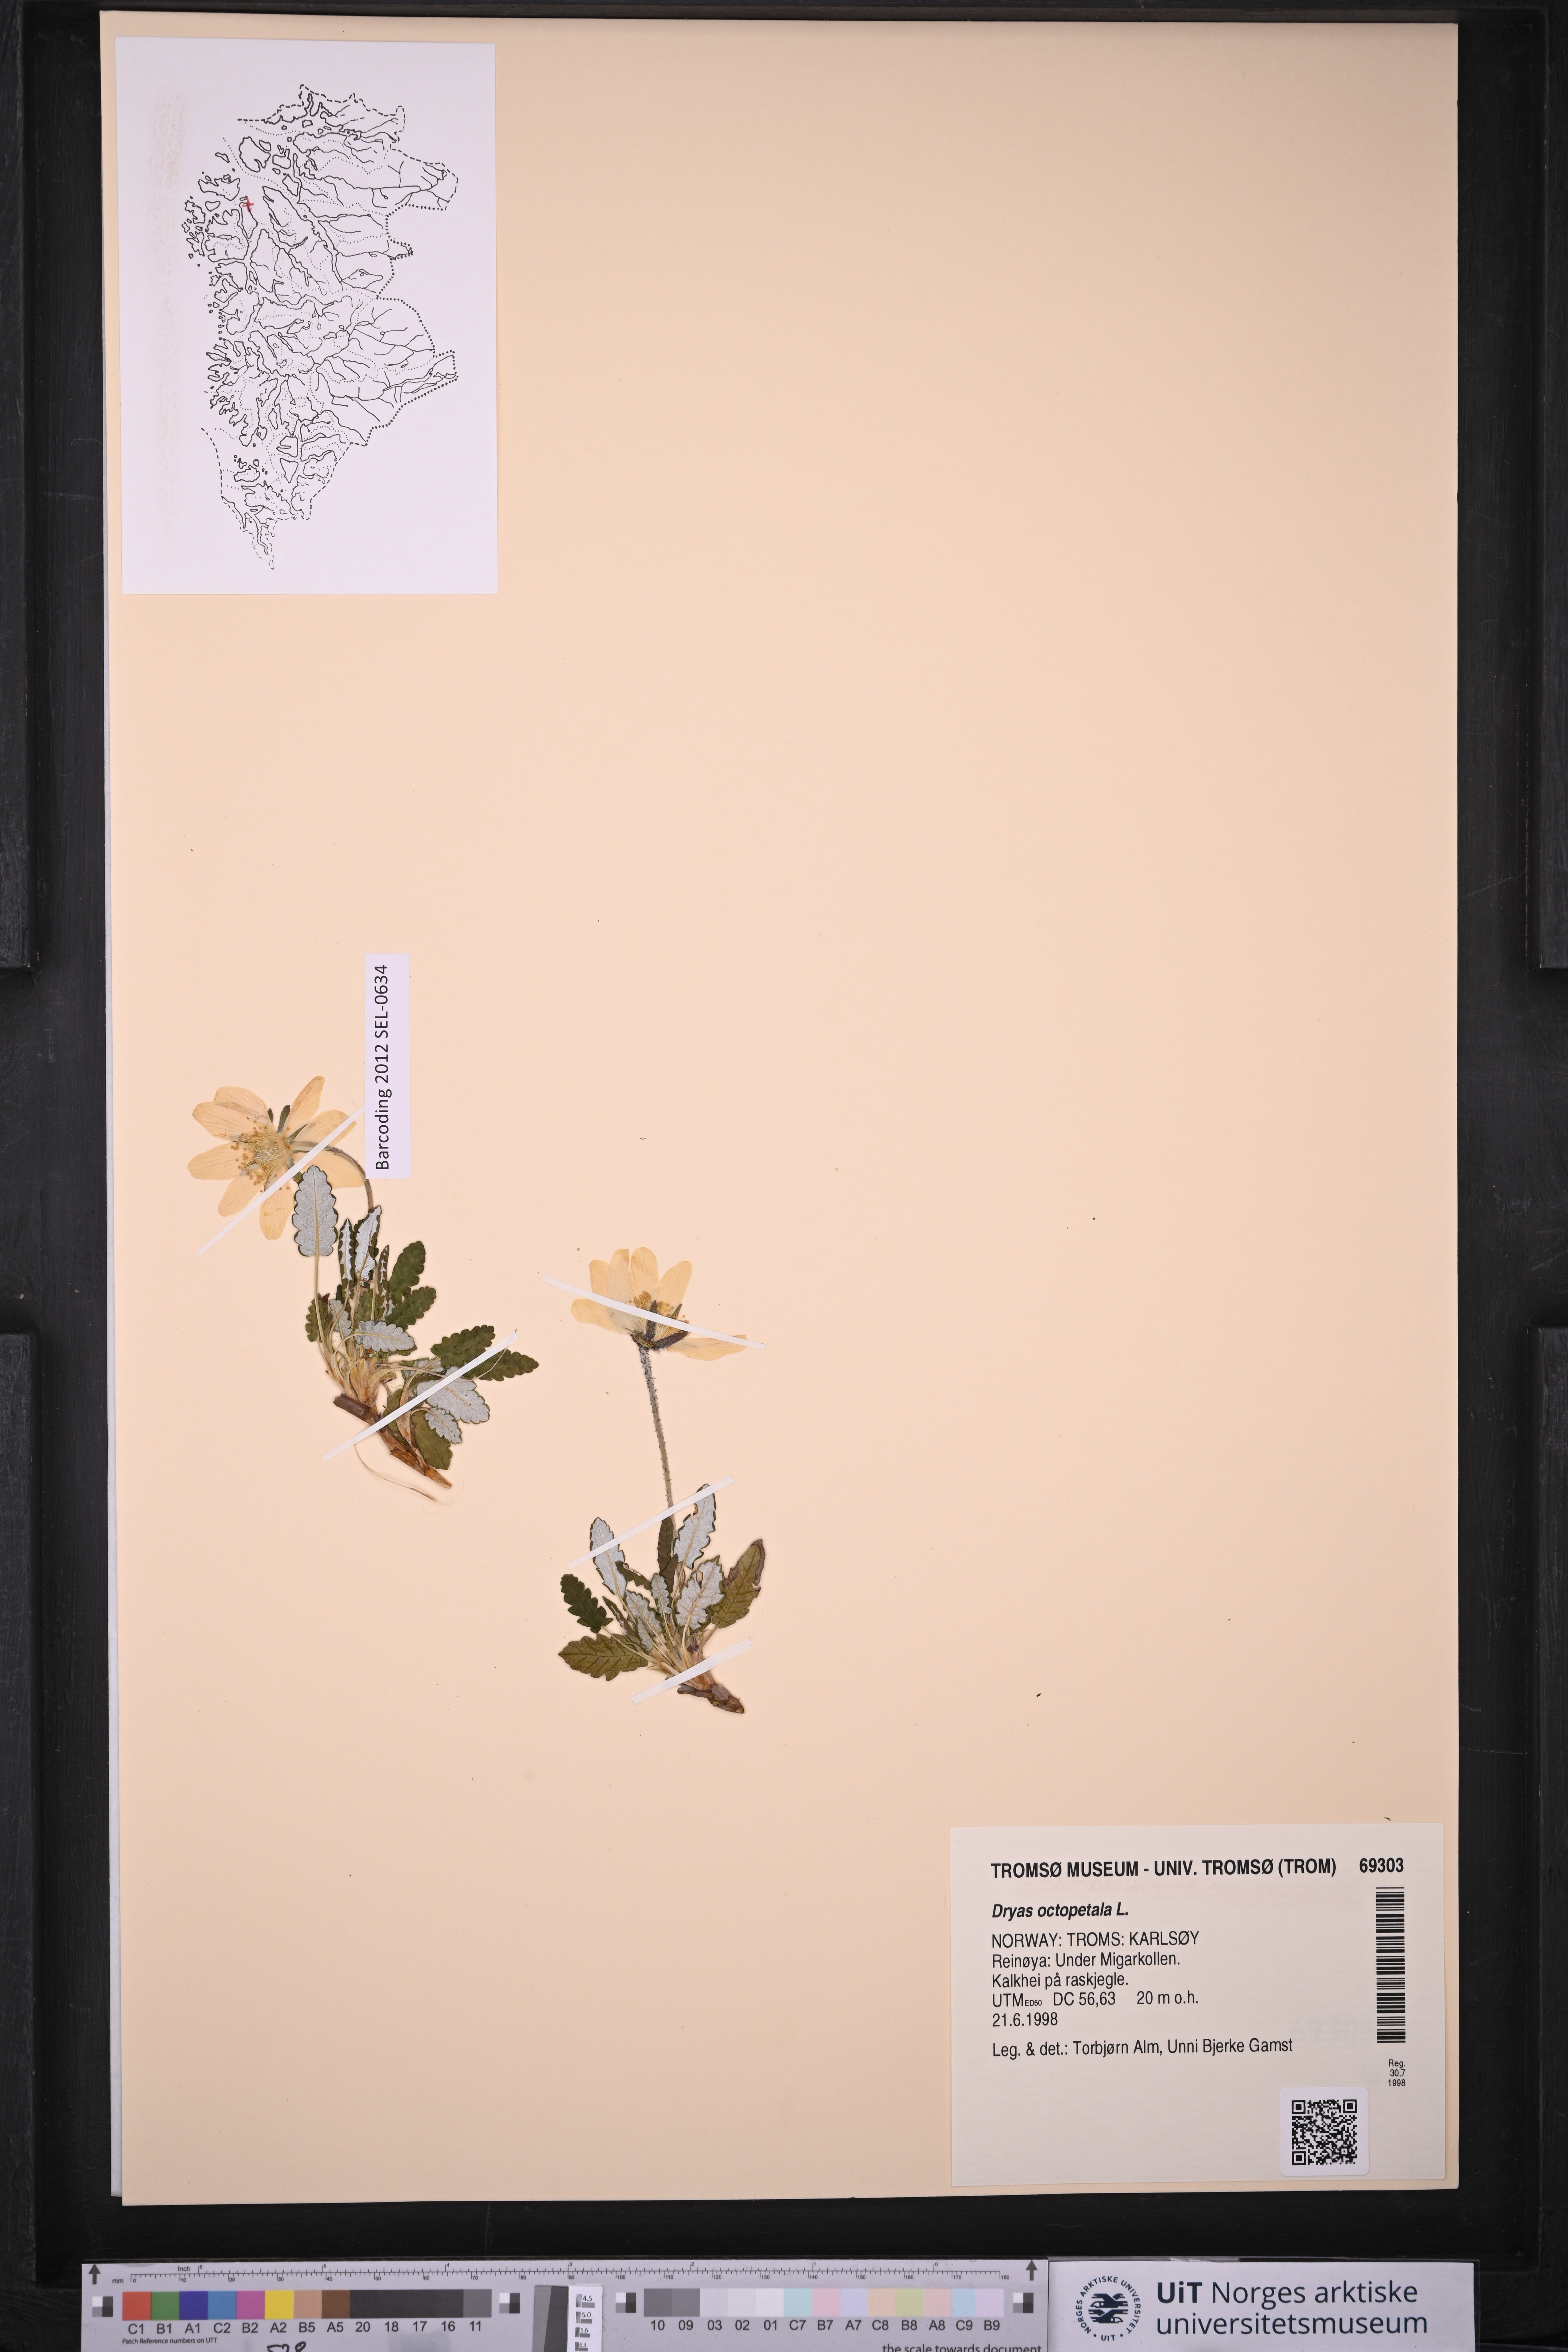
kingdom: Plantae
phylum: Tracheophyta
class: Magnoliopsida
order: Rosales
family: Rosaceae
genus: Dryas
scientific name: Dryas octopetala
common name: Eight-petal mountain-avens
